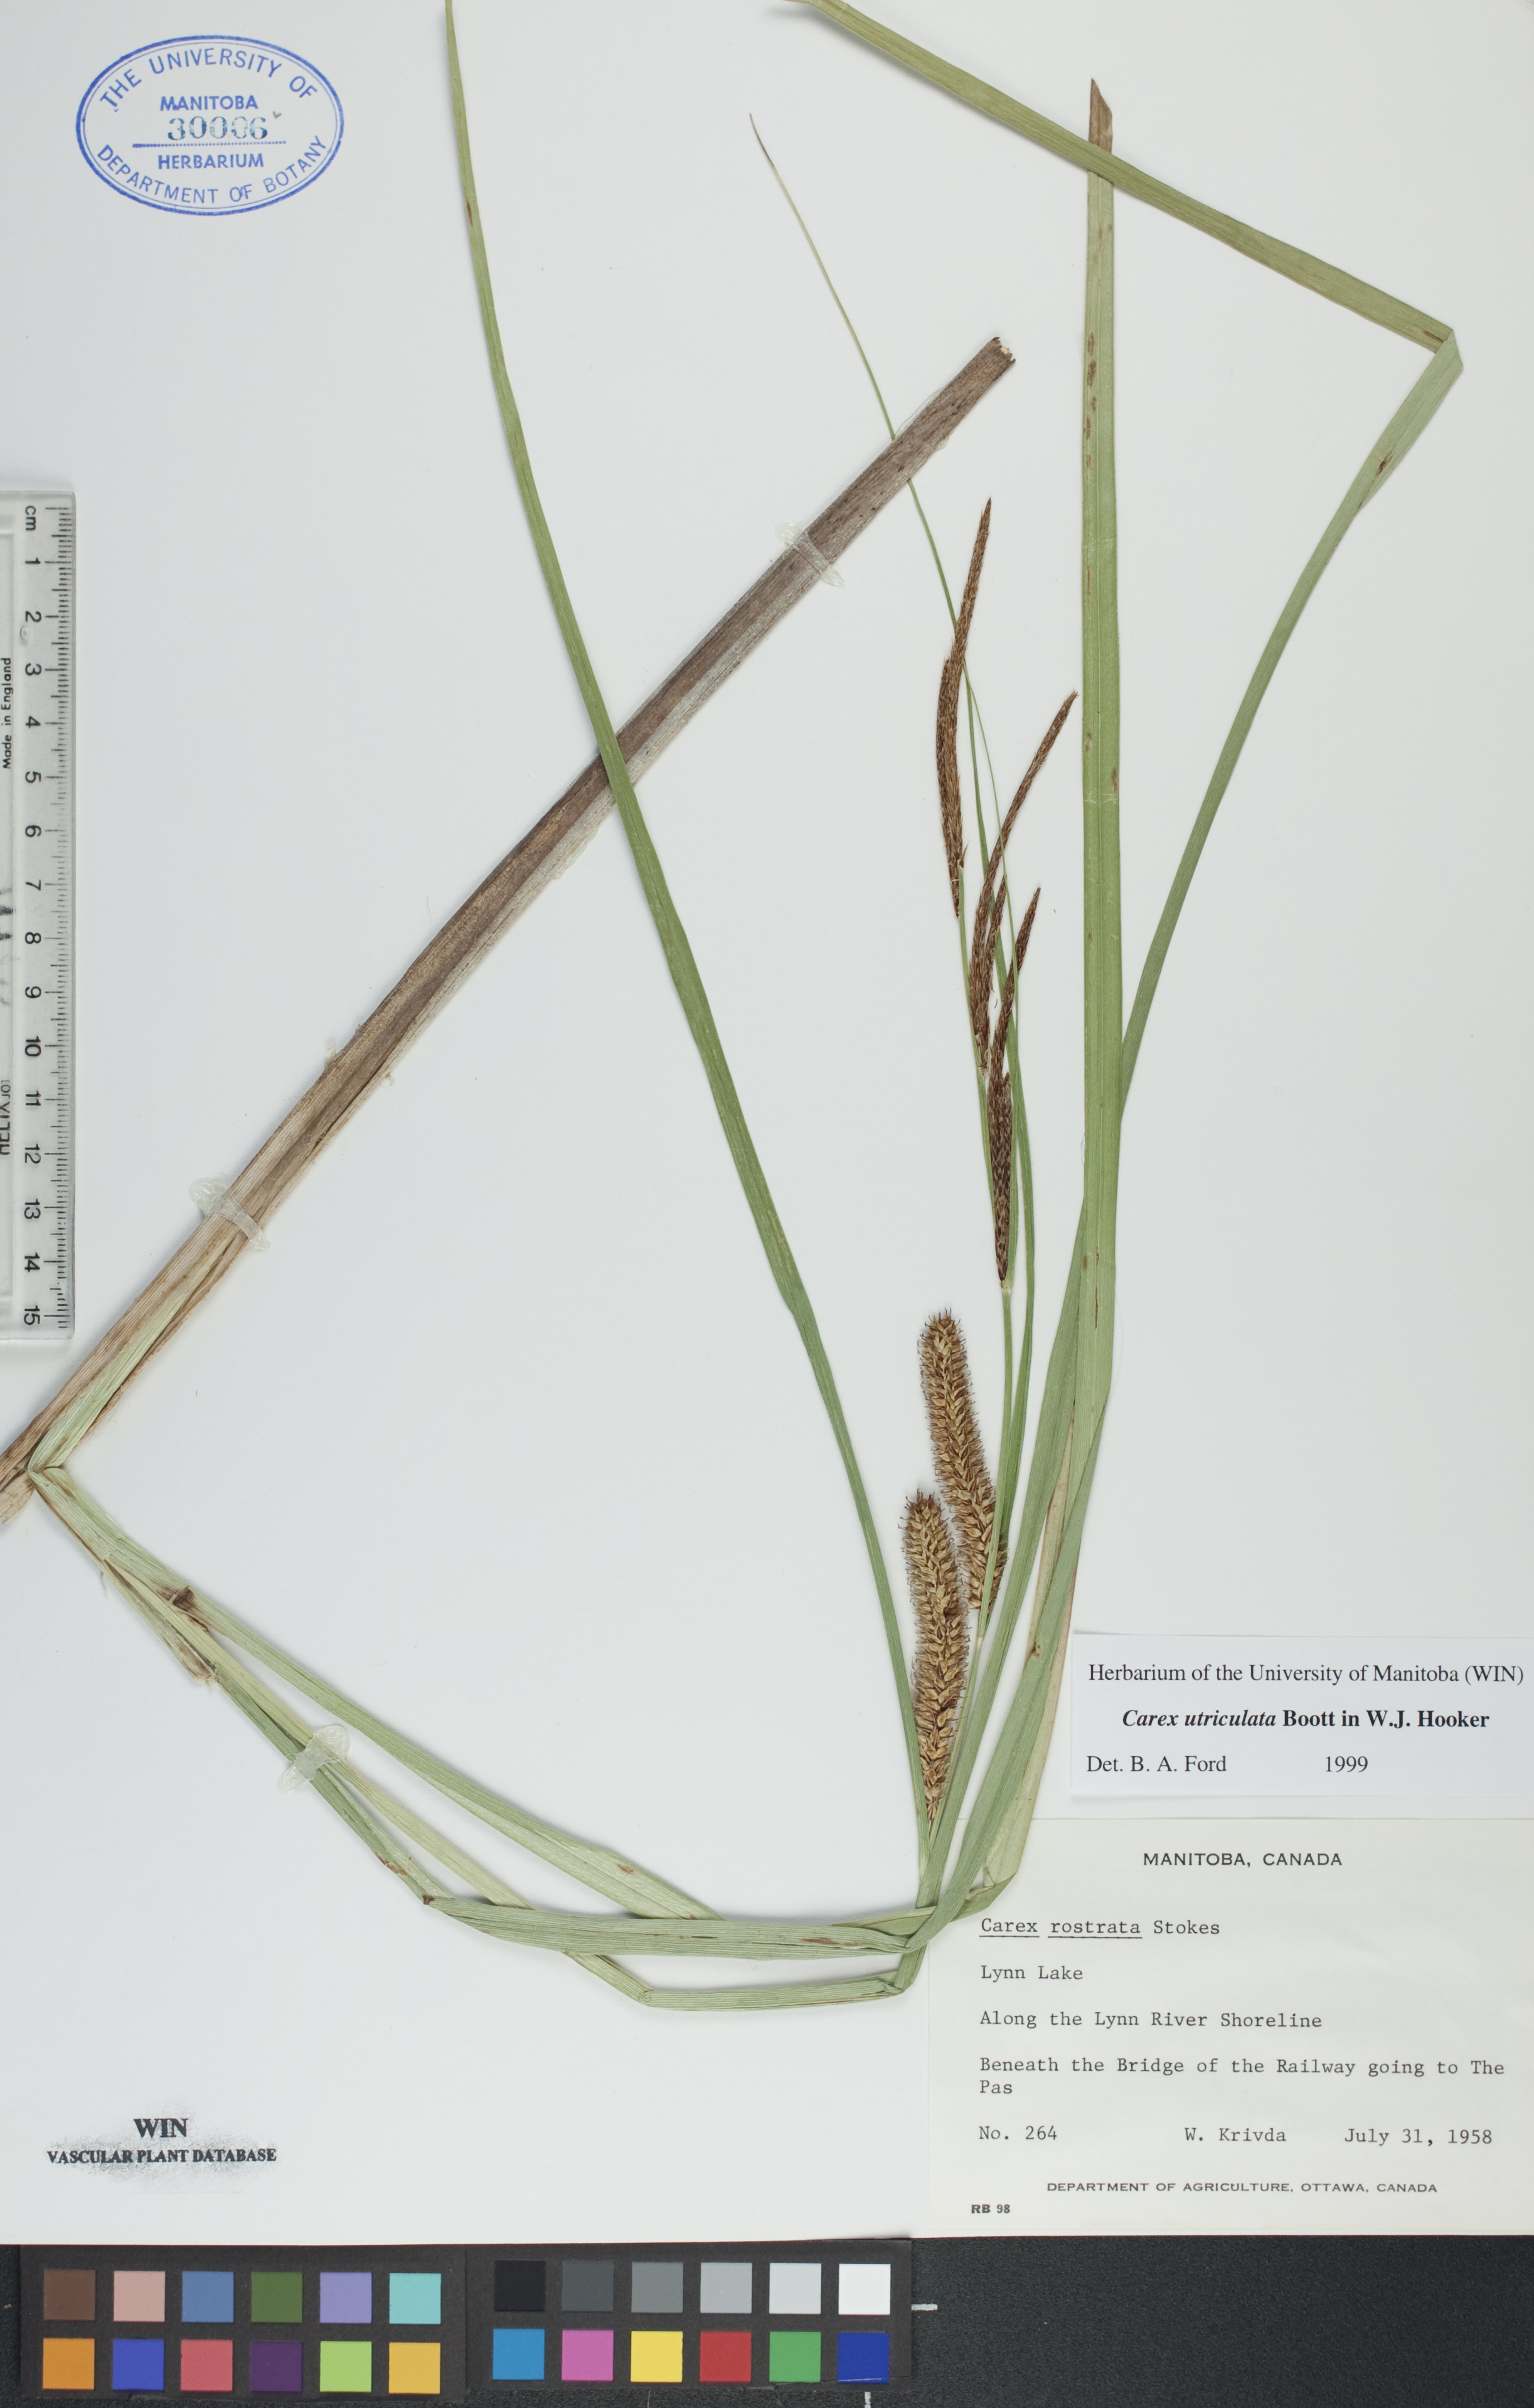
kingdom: Plantae
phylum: Tracheophyta
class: Liliopsida
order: Poales
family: Cyperaceae
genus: Carex
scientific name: Carex utriculata
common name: Beaked sedge
